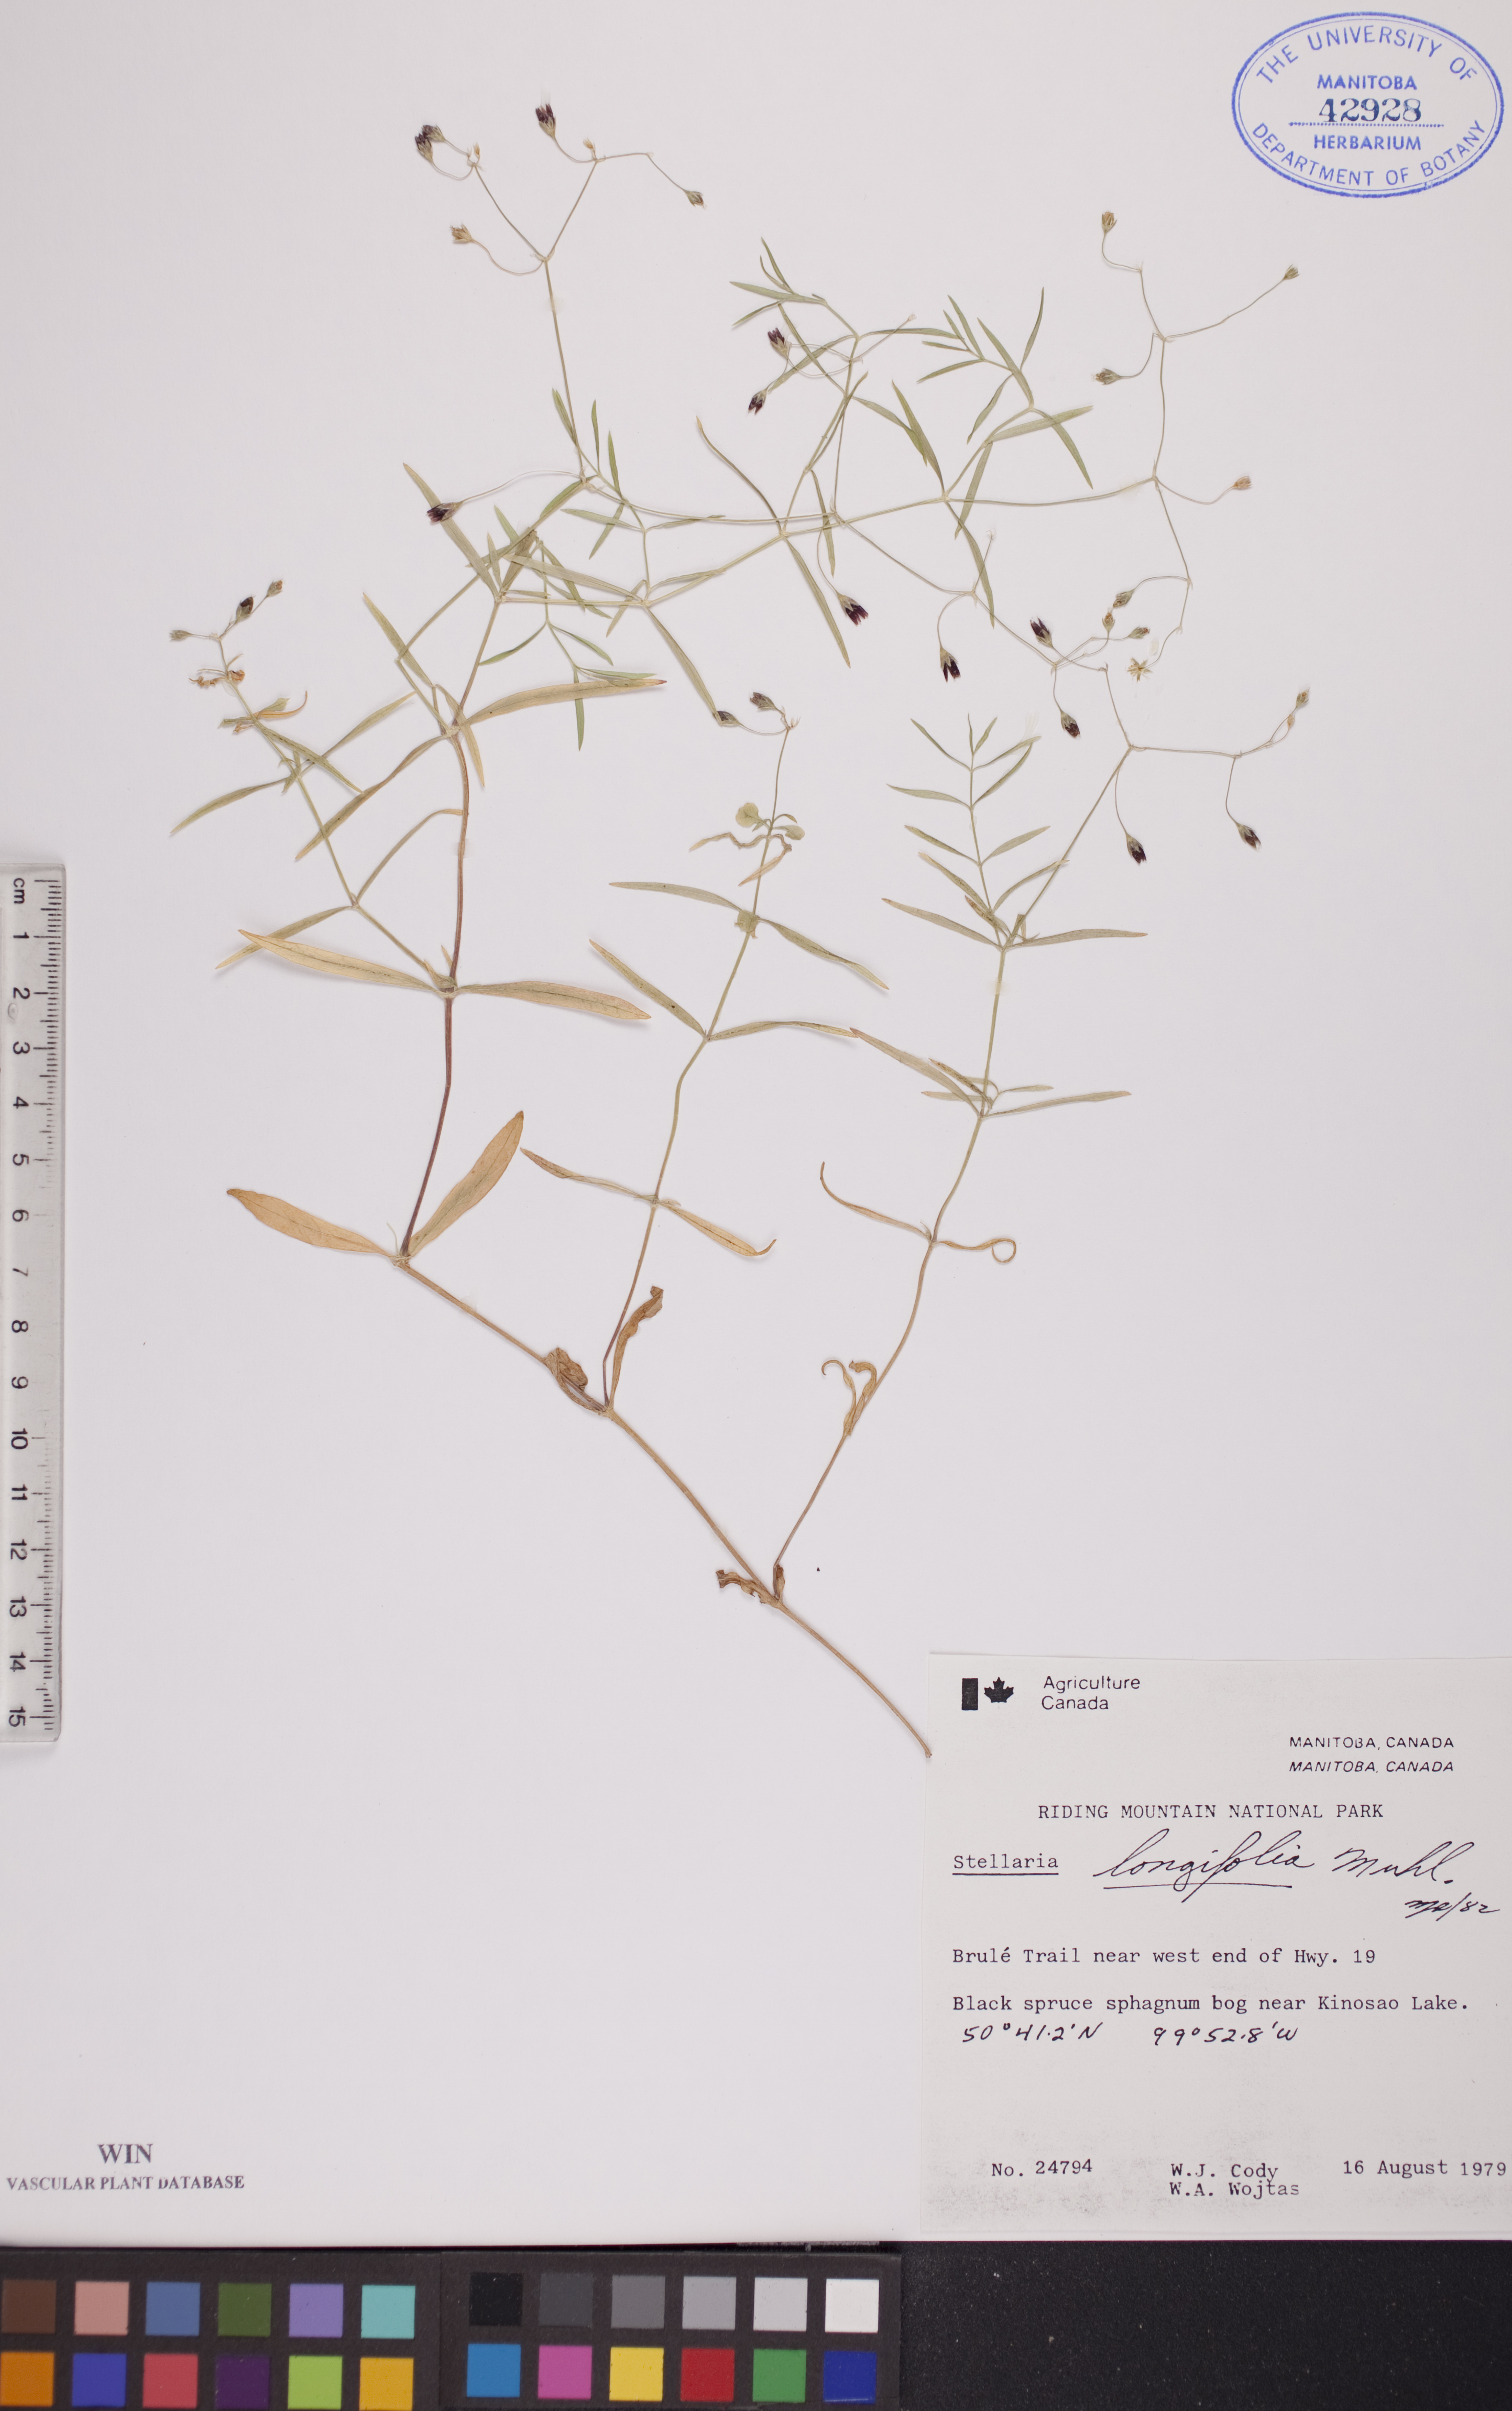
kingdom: Plantae
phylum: Tracheophyta
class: Magnoliopsida
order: Caryophyllales
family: Caryophyllaceae
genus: Stellaria
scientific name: Stellaria longifolia
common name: Long-leaved chickweed
